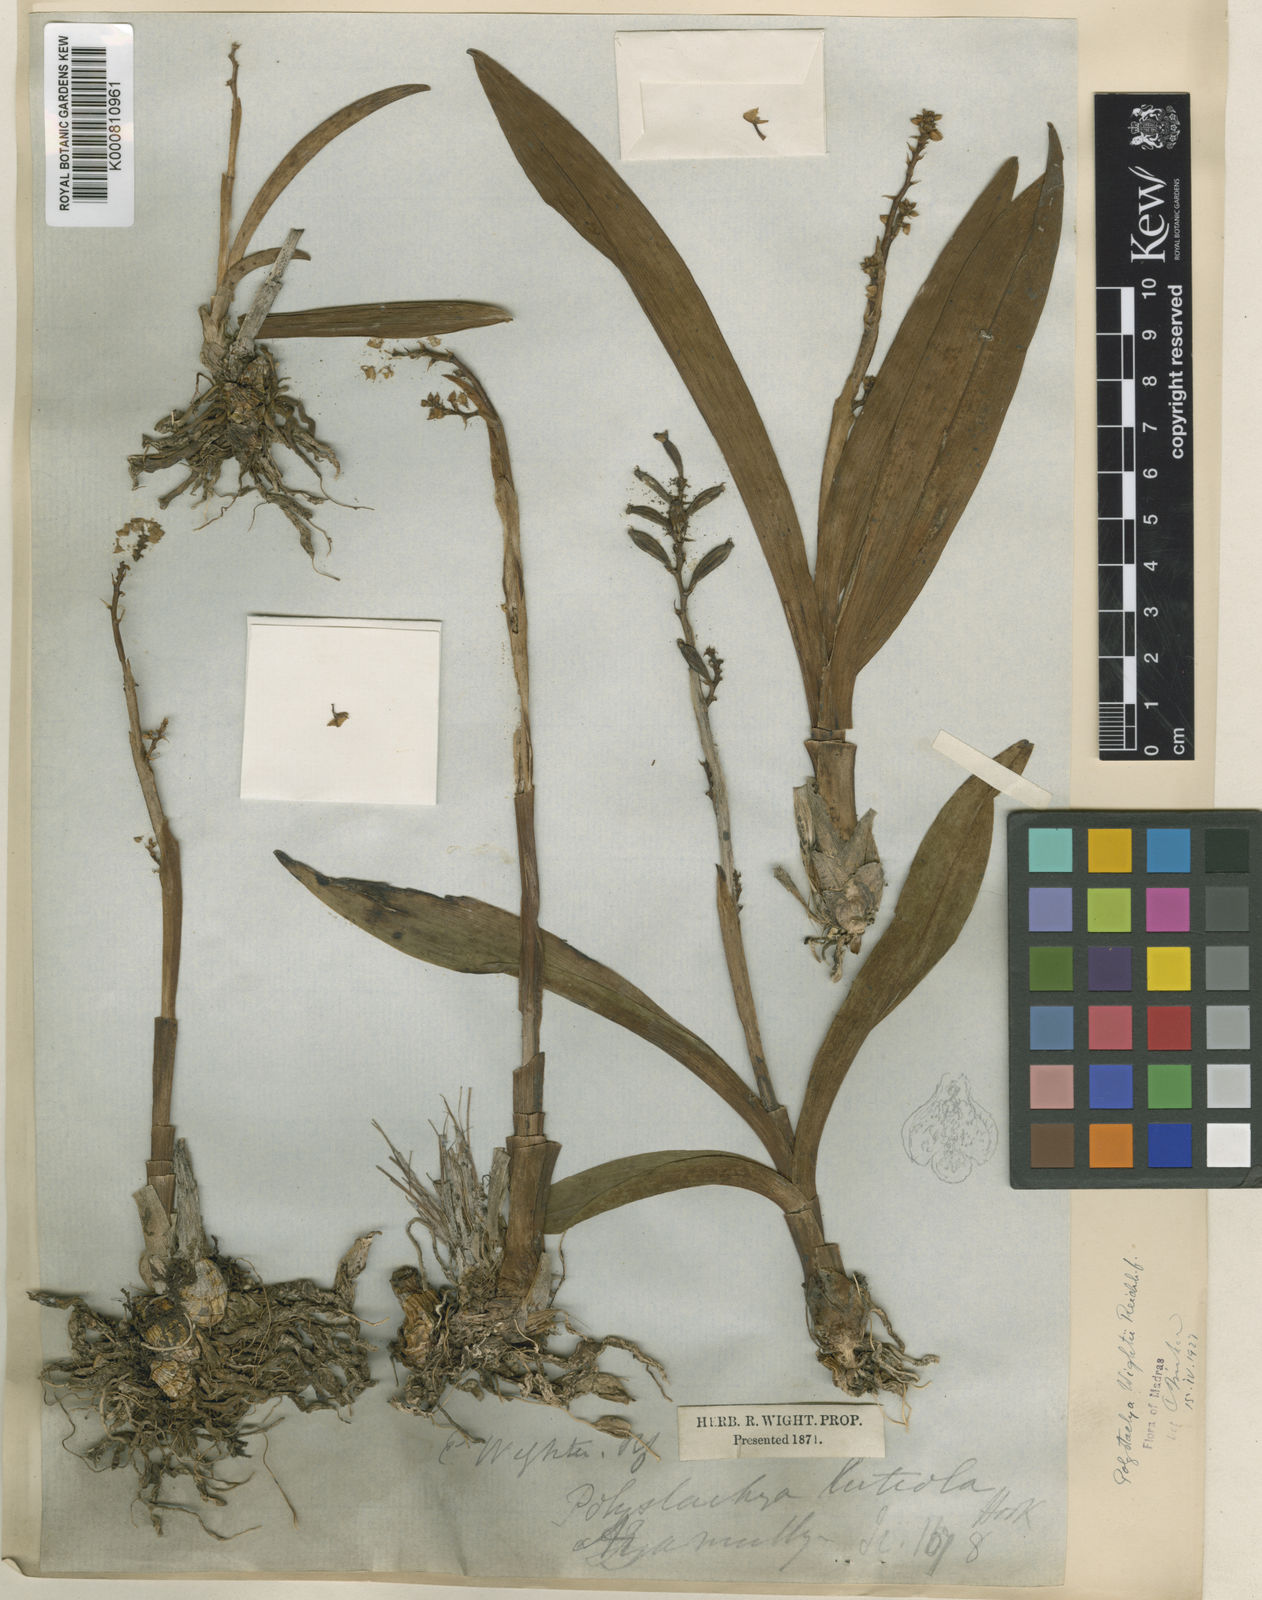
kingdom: Plantae
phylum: Tracheophyta
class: Liliopsida
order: Asparagales
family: Orchidaceae
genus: Polystachya
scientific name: Polystachya concreta
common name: Greater yellowspike orchid
